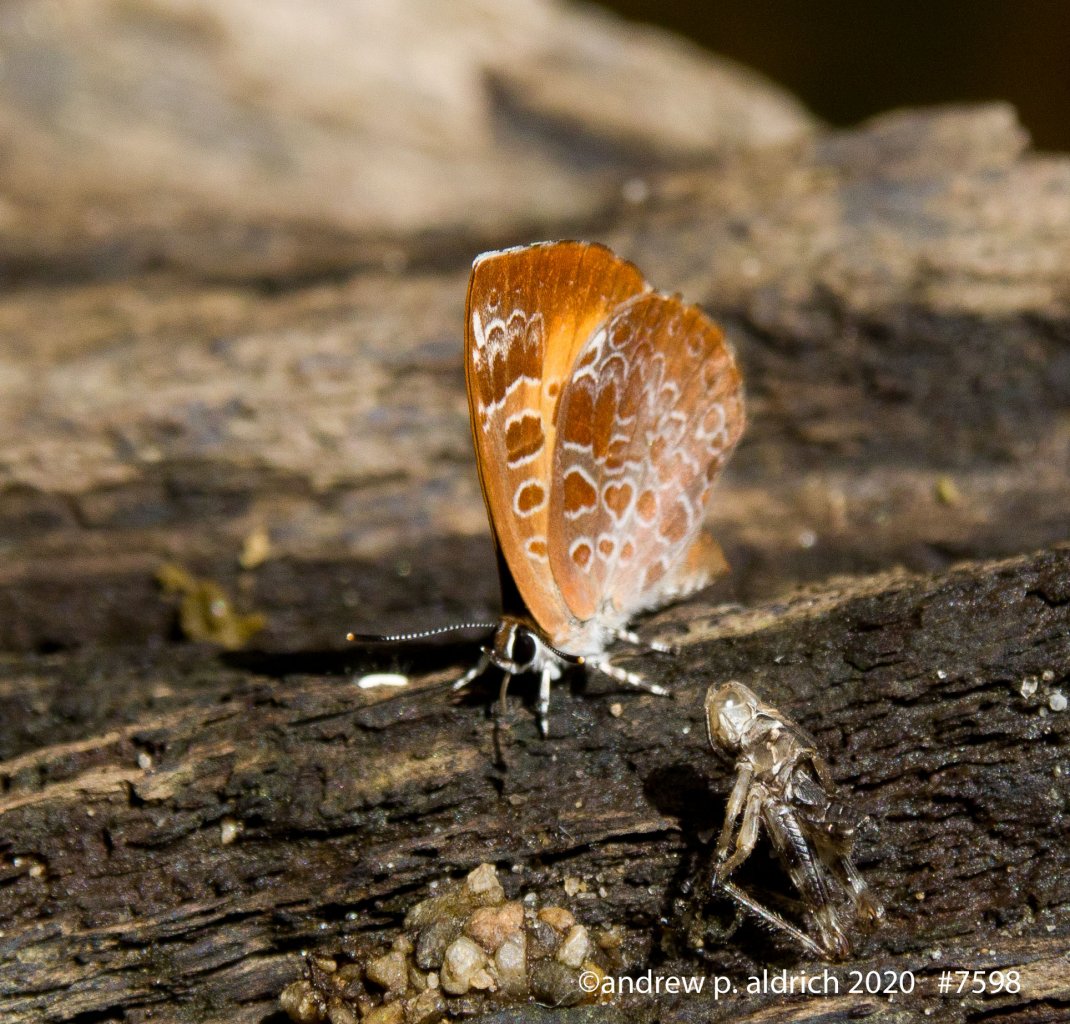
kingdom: Animalia
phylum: Arthropoda
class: Insecta
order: Lepidoptera
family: Lycaenidae
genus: Feniseca
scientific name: Feniseca tarquinius
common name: Harvester
